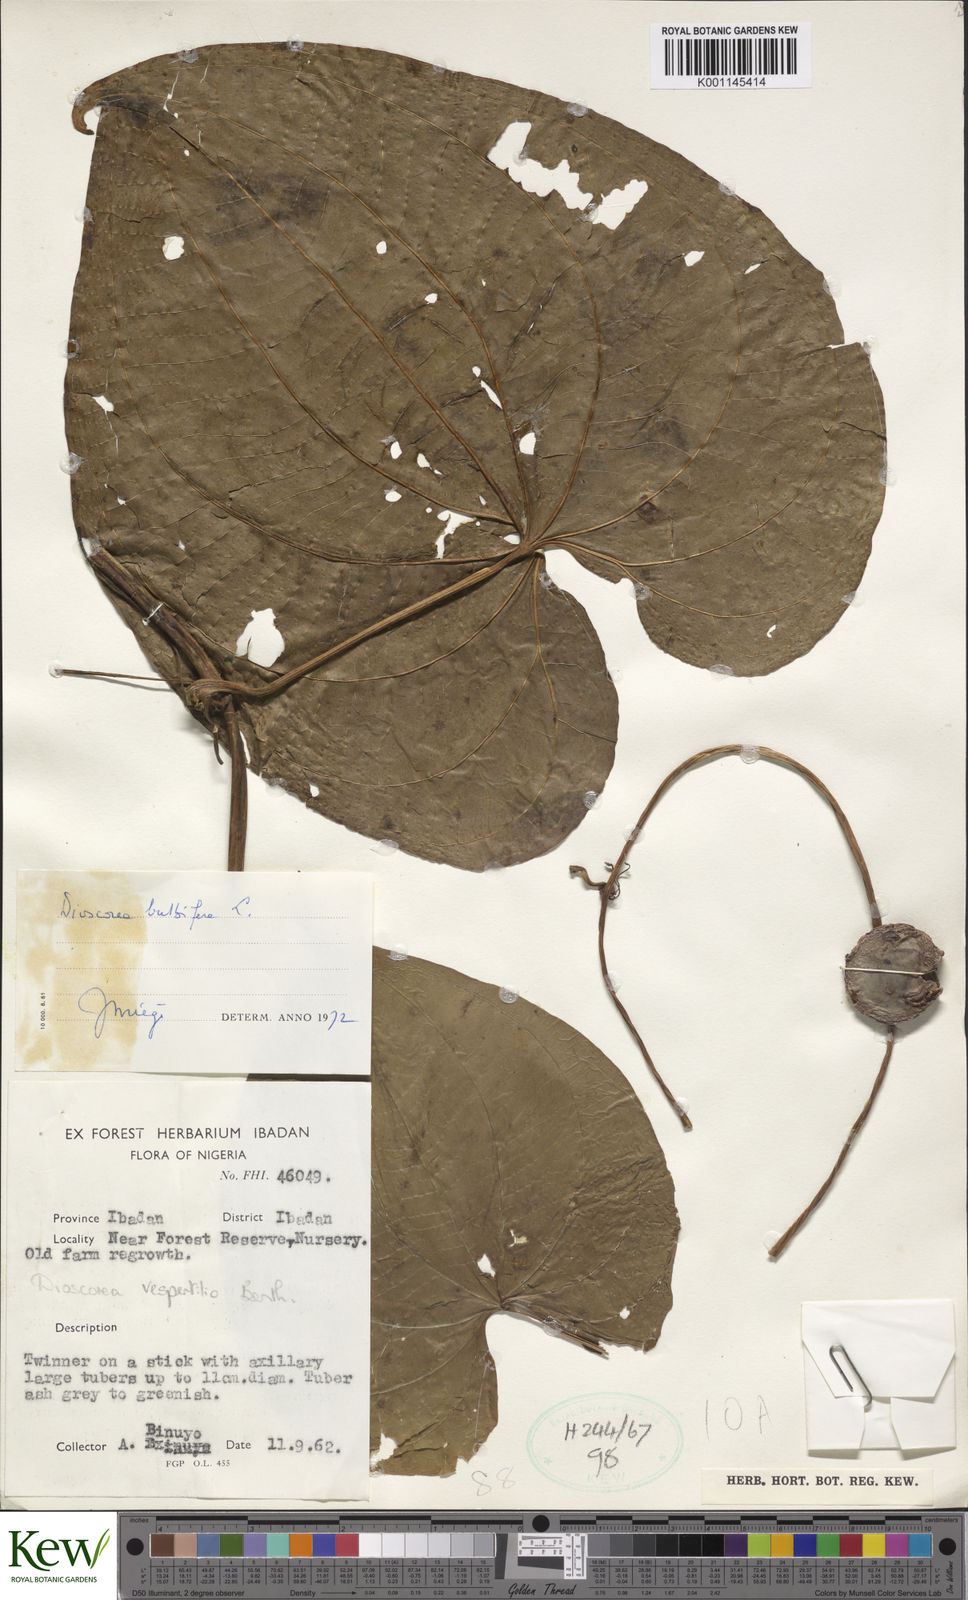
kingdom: Plantae
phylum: Tracheophyta
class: Liliopsida
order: Dioscoreales
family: Dioscoreaceae
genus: Dioscorea
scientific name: Dioscorea bulbifera
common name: Air yam
